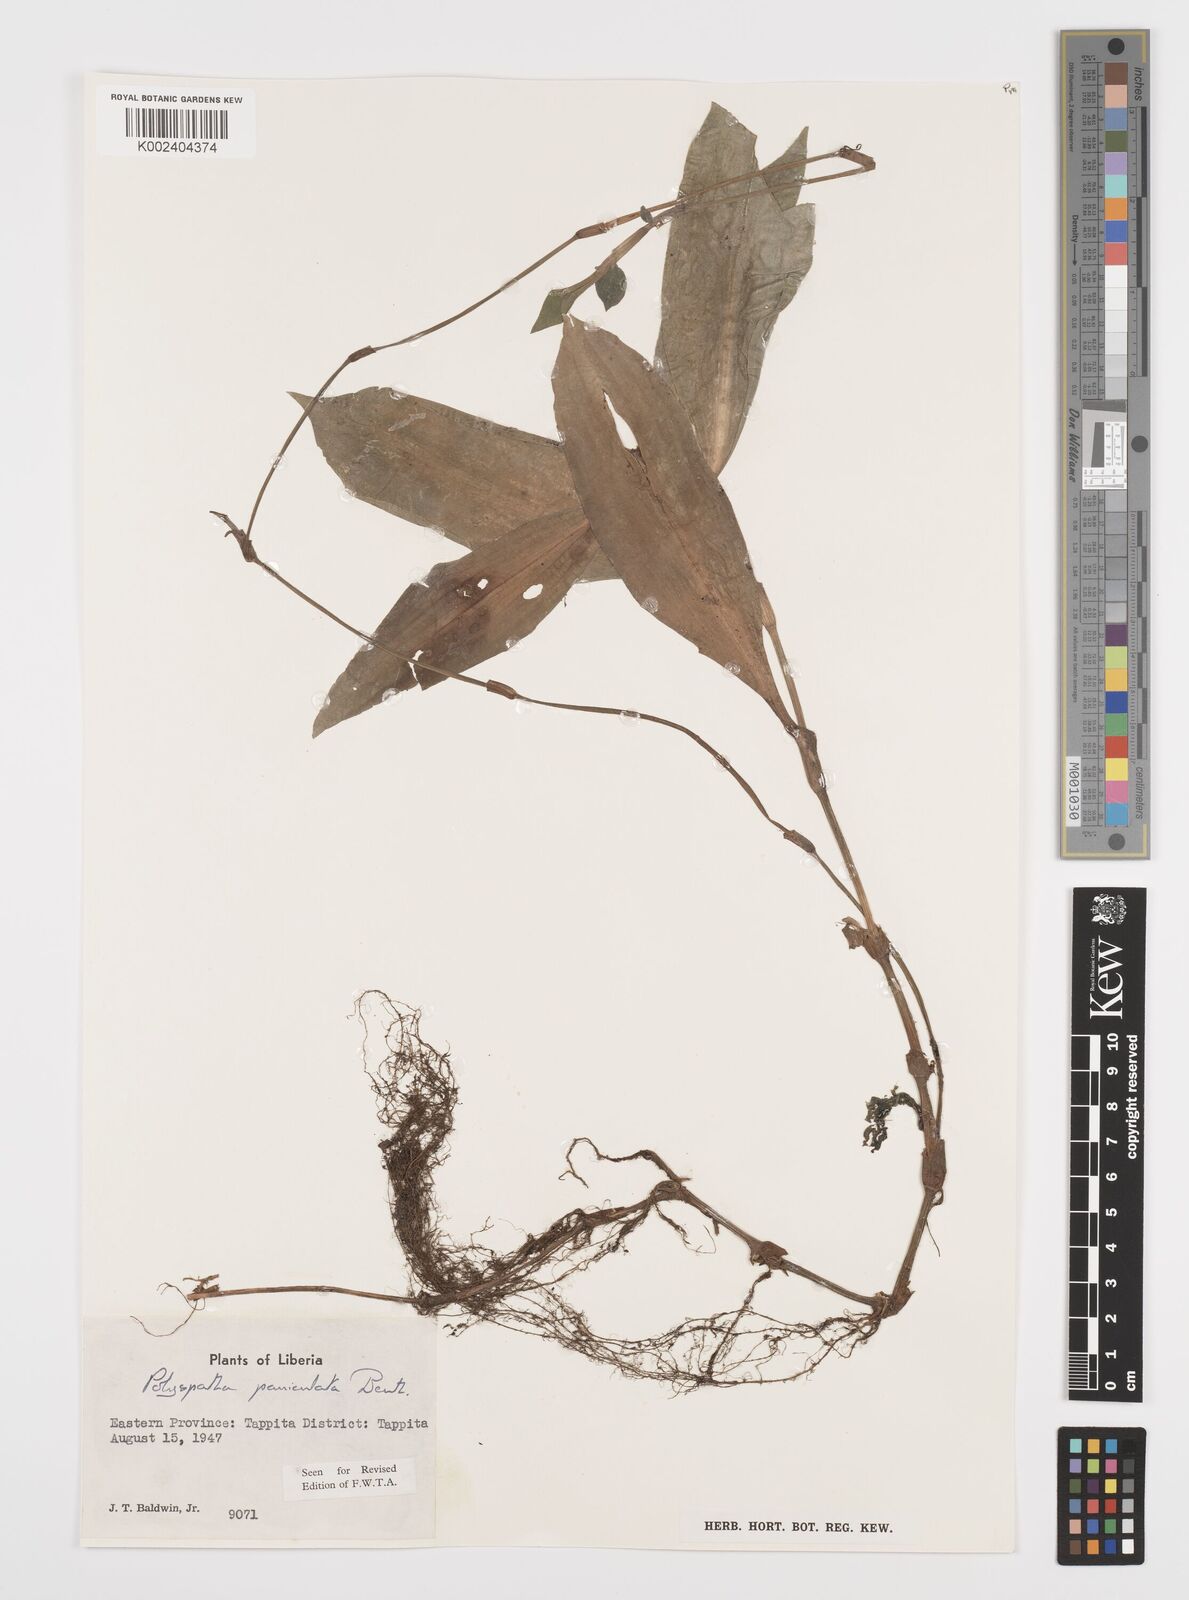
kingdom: Plantae
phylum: Tracheophyta
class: Liliopsida
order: Commelinales
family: Commelinaceae
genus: Polyspatha
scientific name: Polyspatha paniculata
